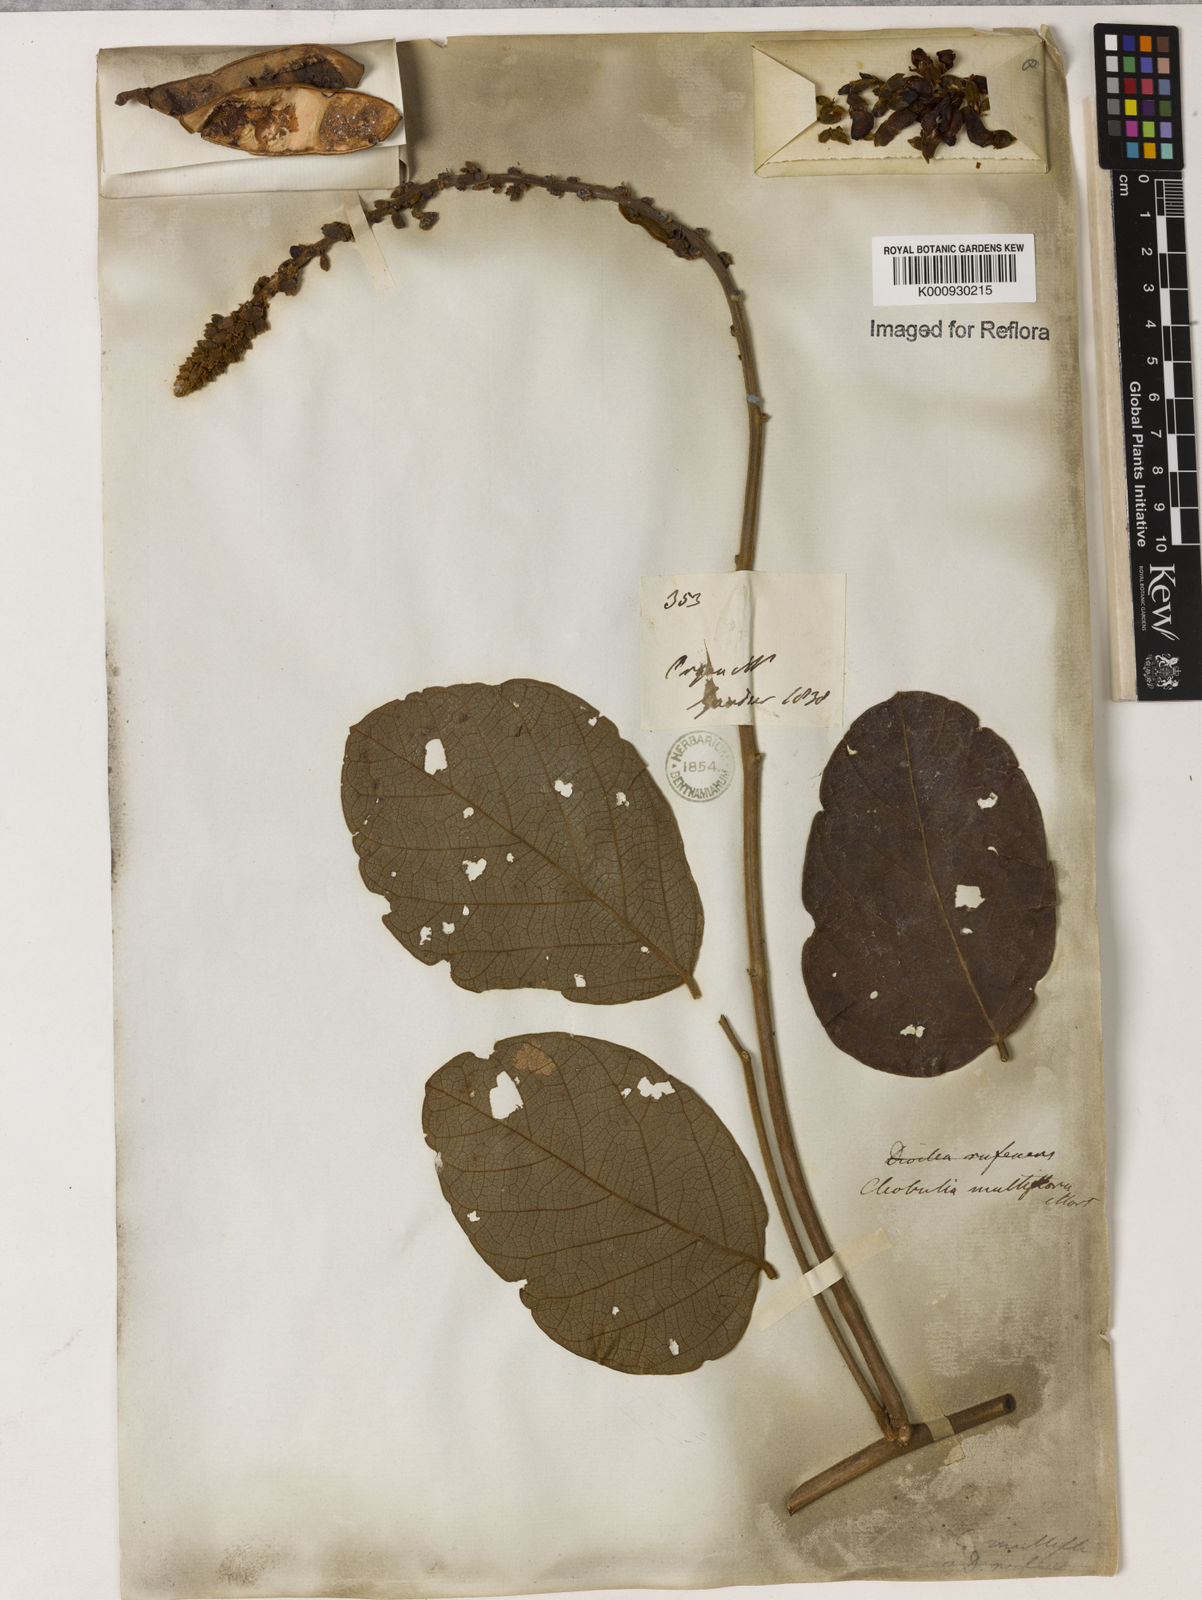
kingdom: Plantae
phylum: Tracheophyta
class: Magnoliopsida
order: Fabales
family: Fabaceae
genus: Cleobulia
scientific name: Cleobulia coccinea
